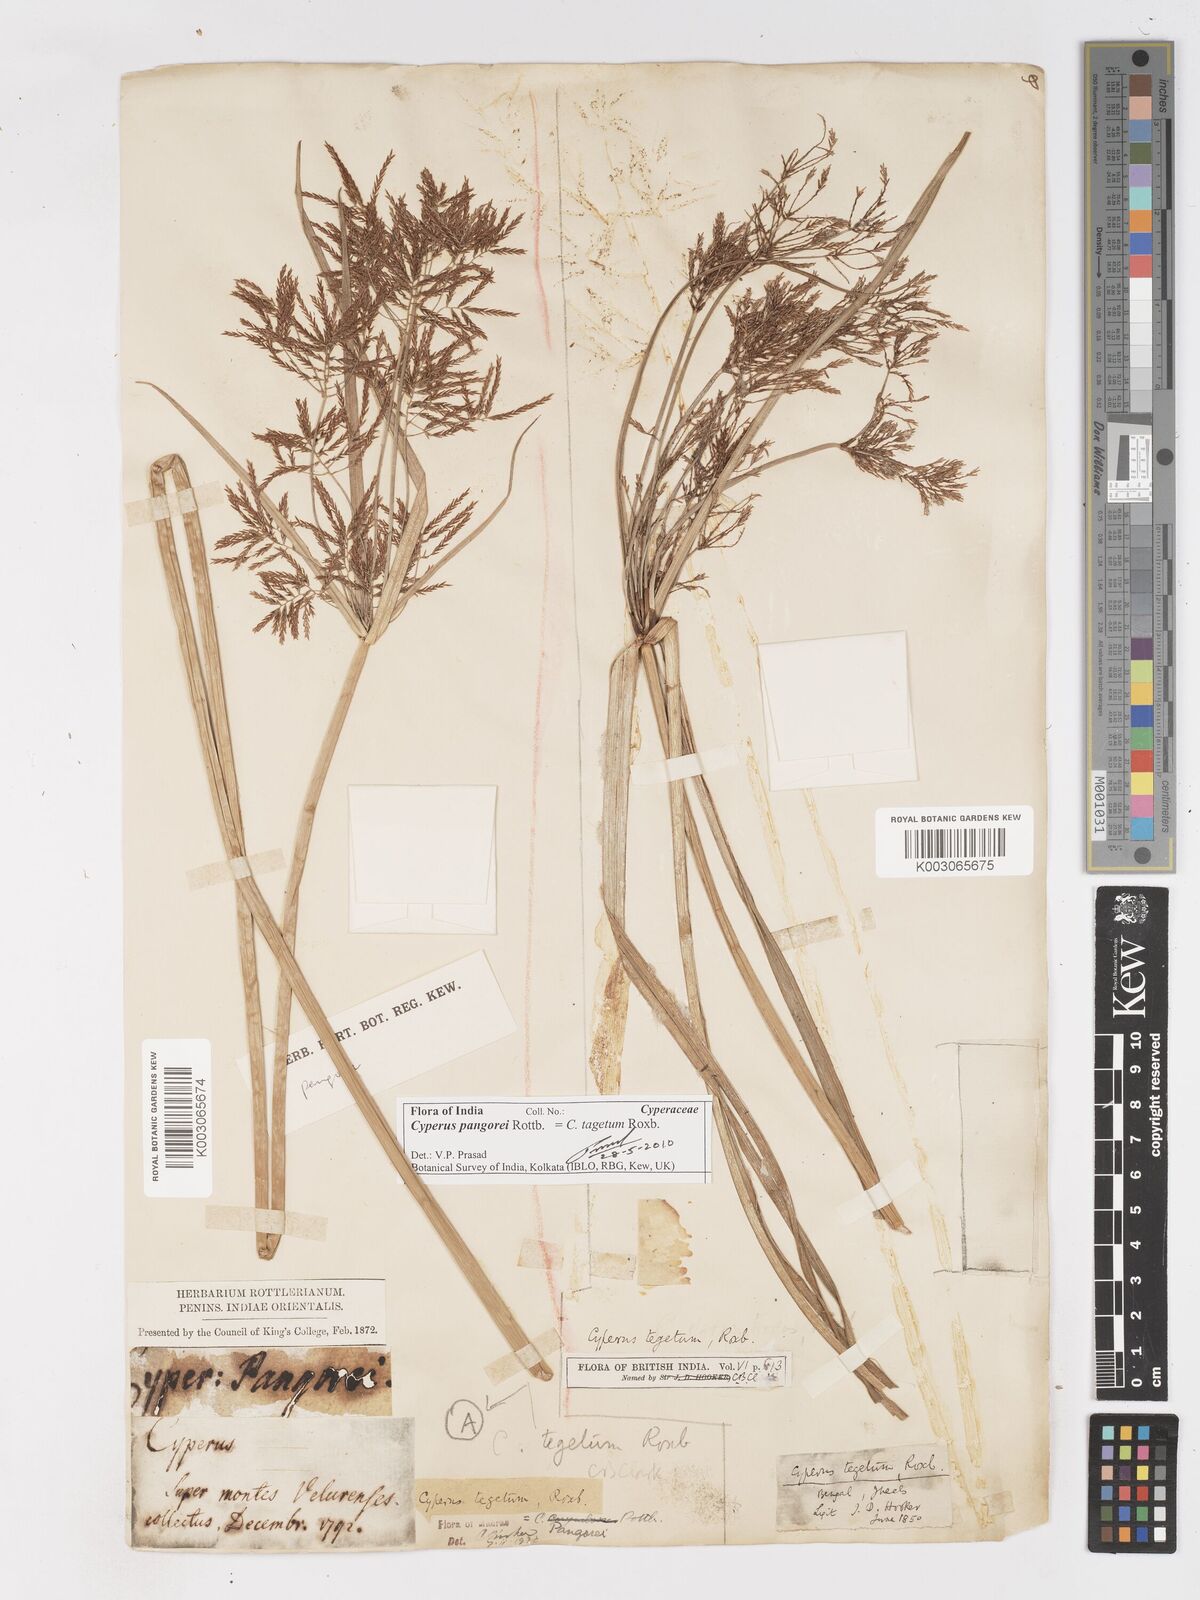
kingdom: Plantae
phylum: Tracheophyta
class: Liliopsida
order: Poales
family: Cyperaceae
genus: Cyperus
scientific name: Cyperus pangorei
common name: Mat sedge
